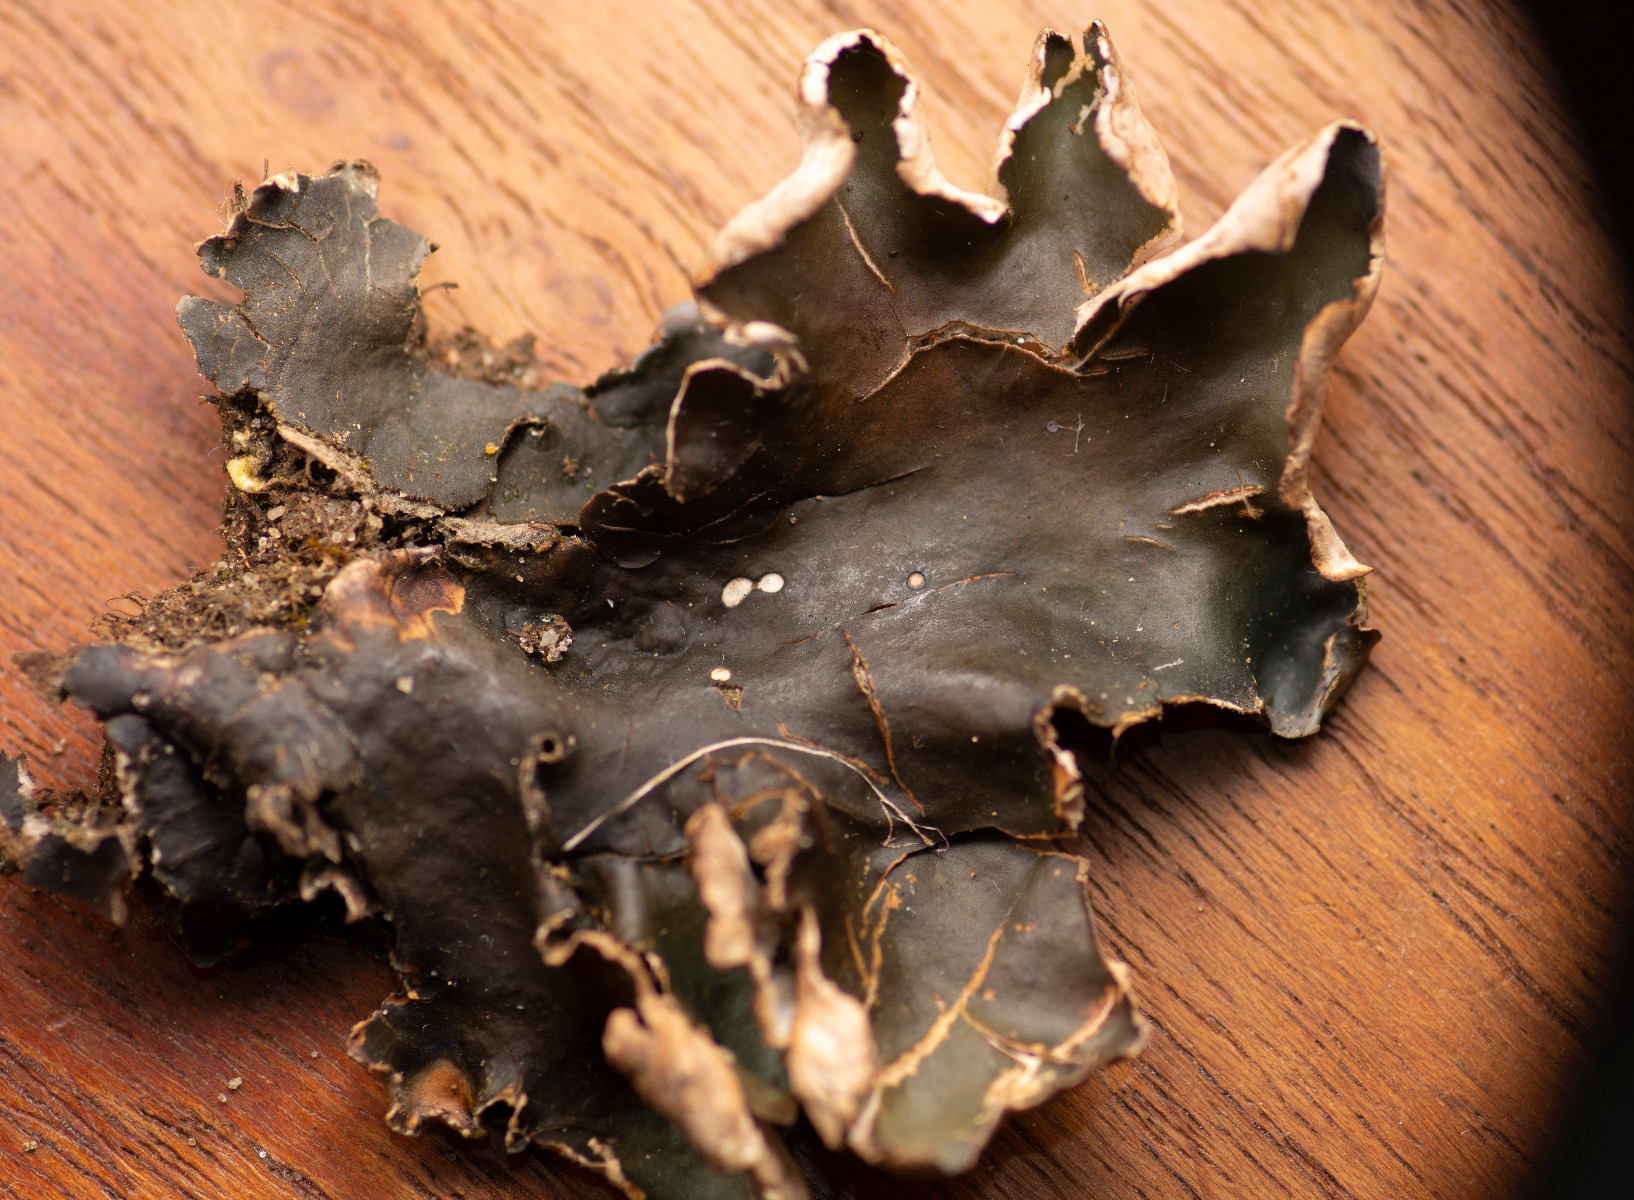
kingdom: Fungi
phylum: Ascomycota
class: Lecanoromycetes
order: Peltigerales
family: Peltigeraceae
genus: Peltigera
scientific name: Peltigera malacea
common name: mat skjoldlav
